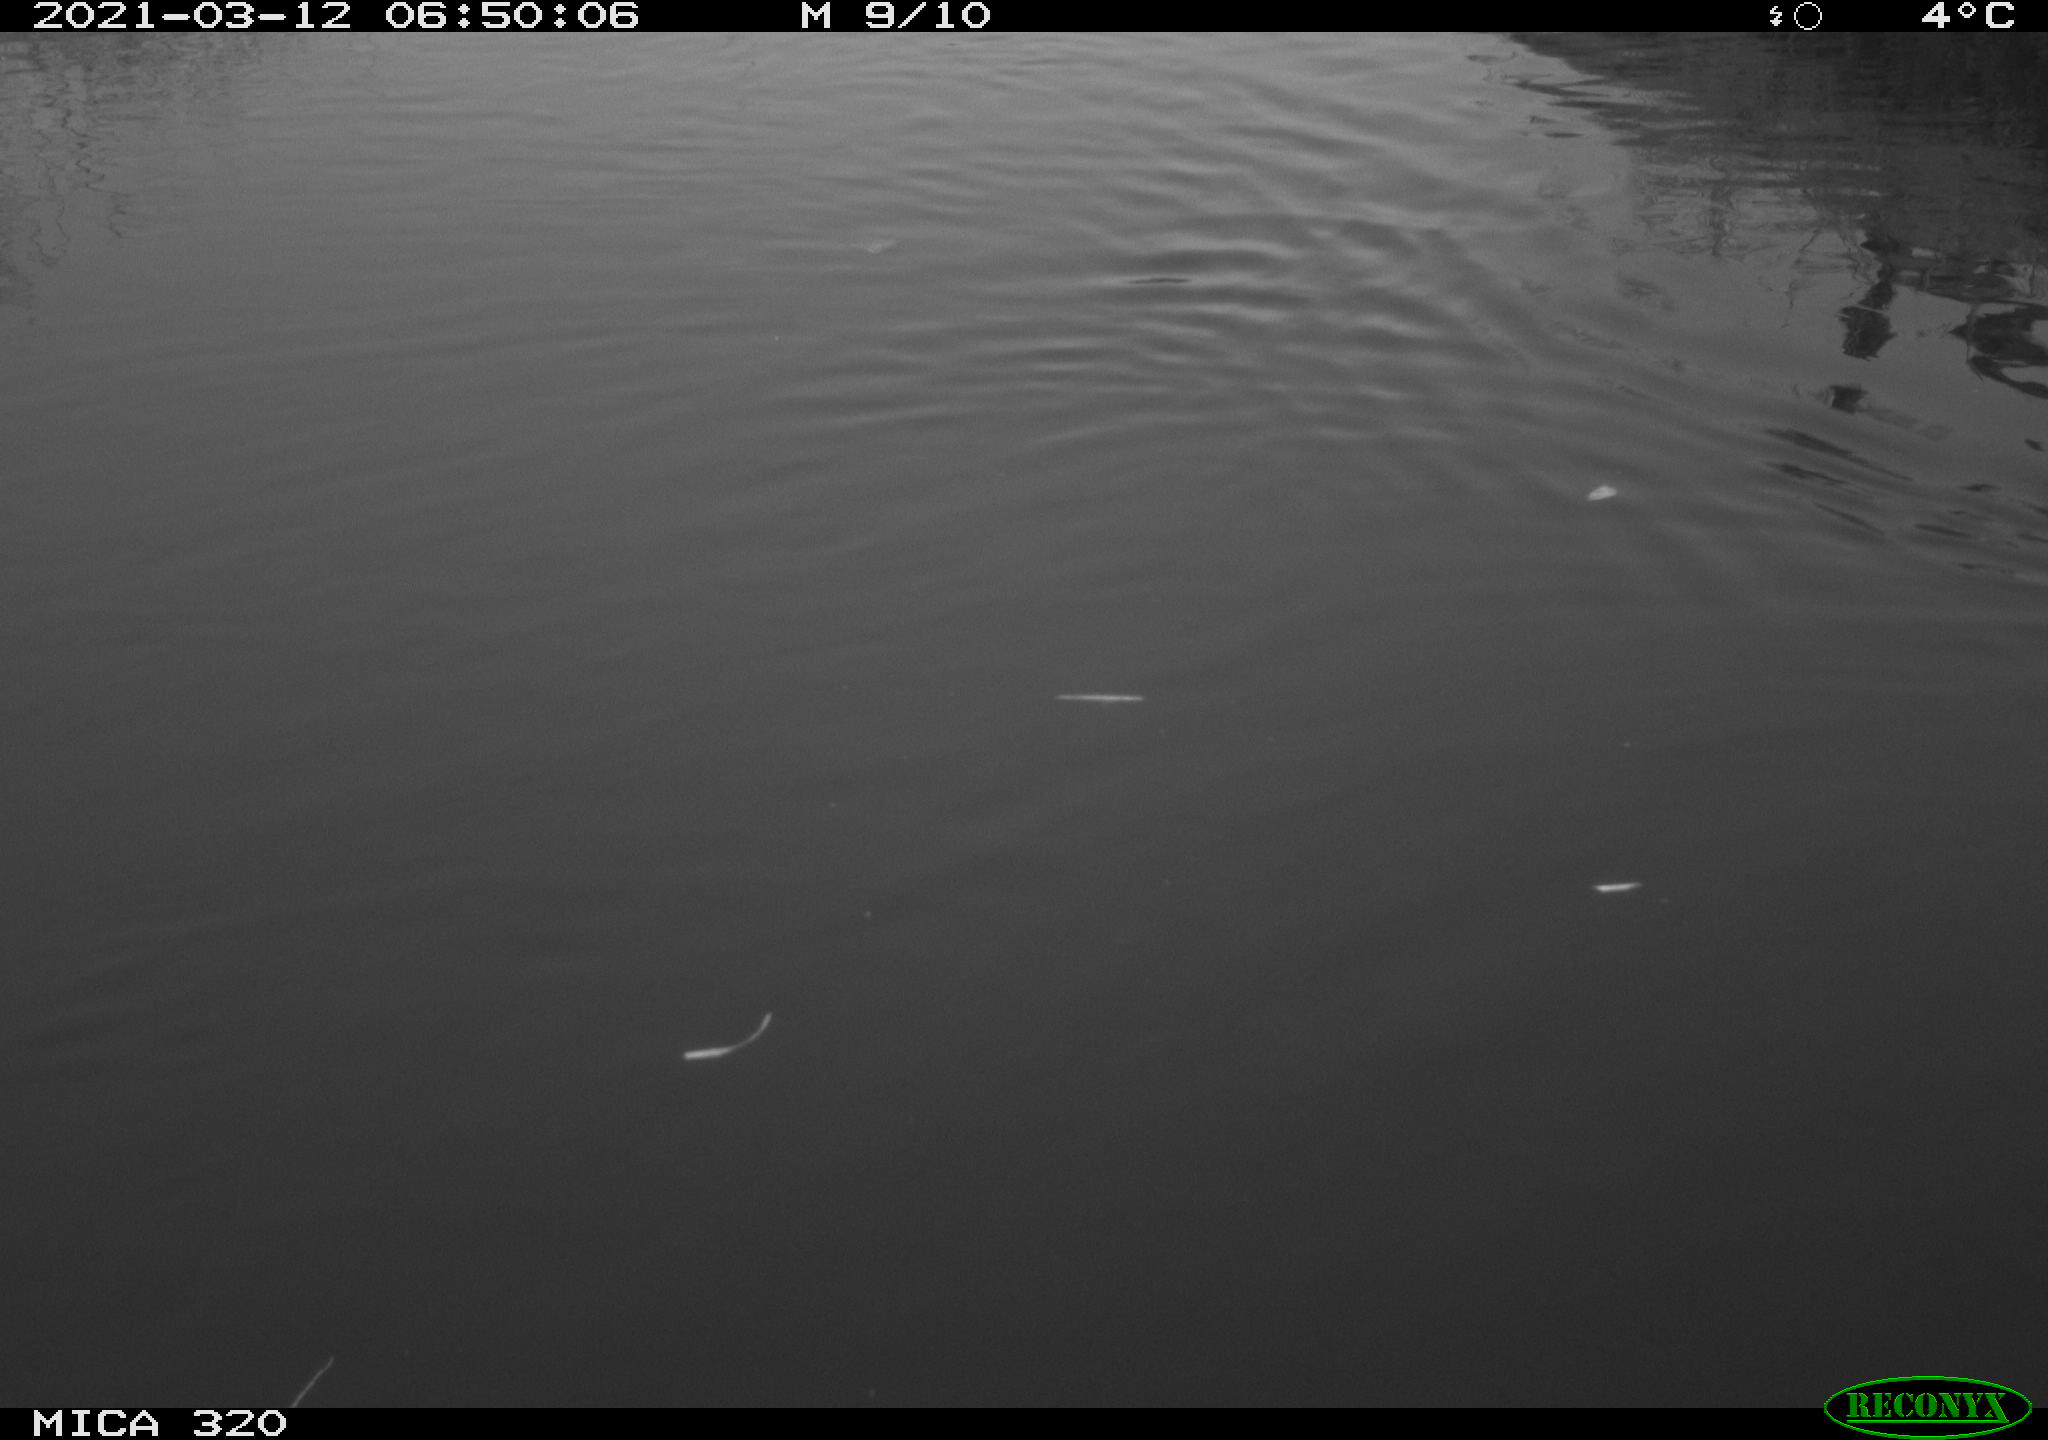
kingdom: Animalia
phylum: Chordata
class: Aves
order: Gruiformes
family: Rallidae
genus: Gallinula
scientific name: Gallinula chloropus
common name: Common moorhen
